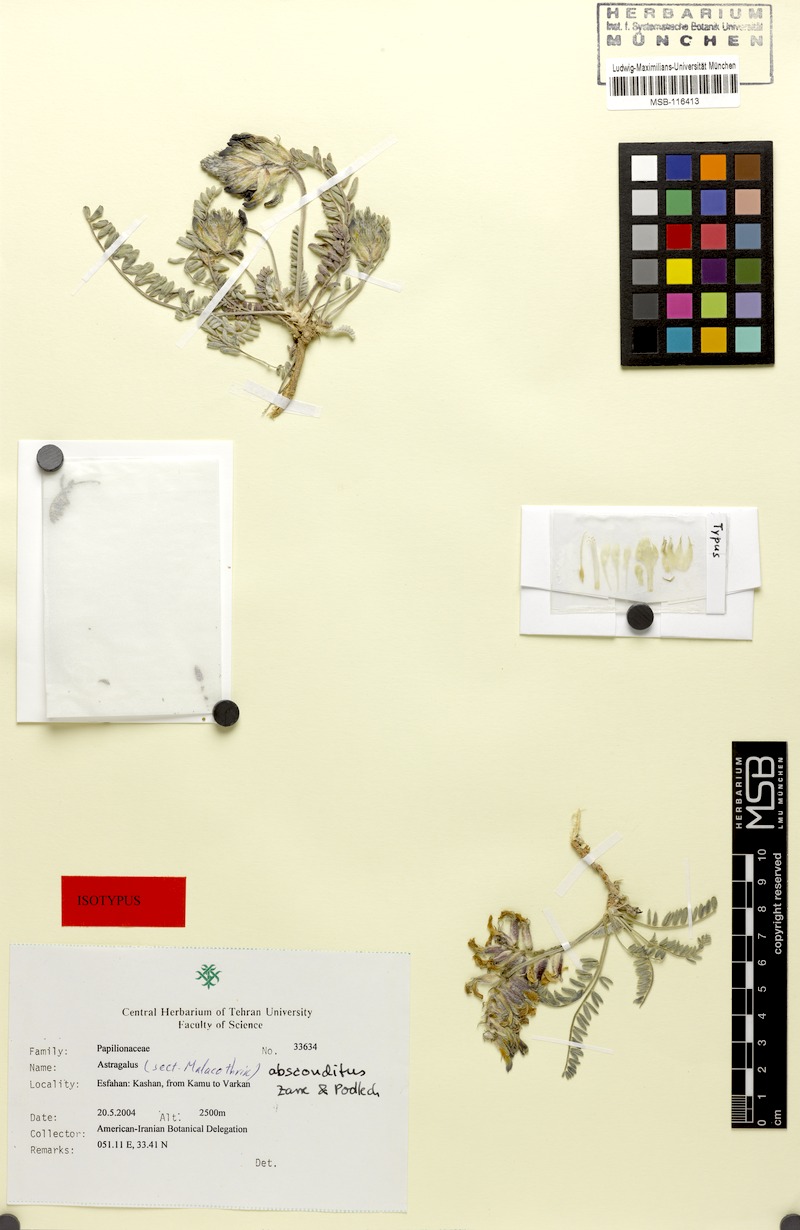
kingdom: Plantae
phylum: Tracheophyta
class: Magnoliopsida
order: Fabales
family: Fabaceae
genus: Astragalus
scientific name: Astragalus absconditus
